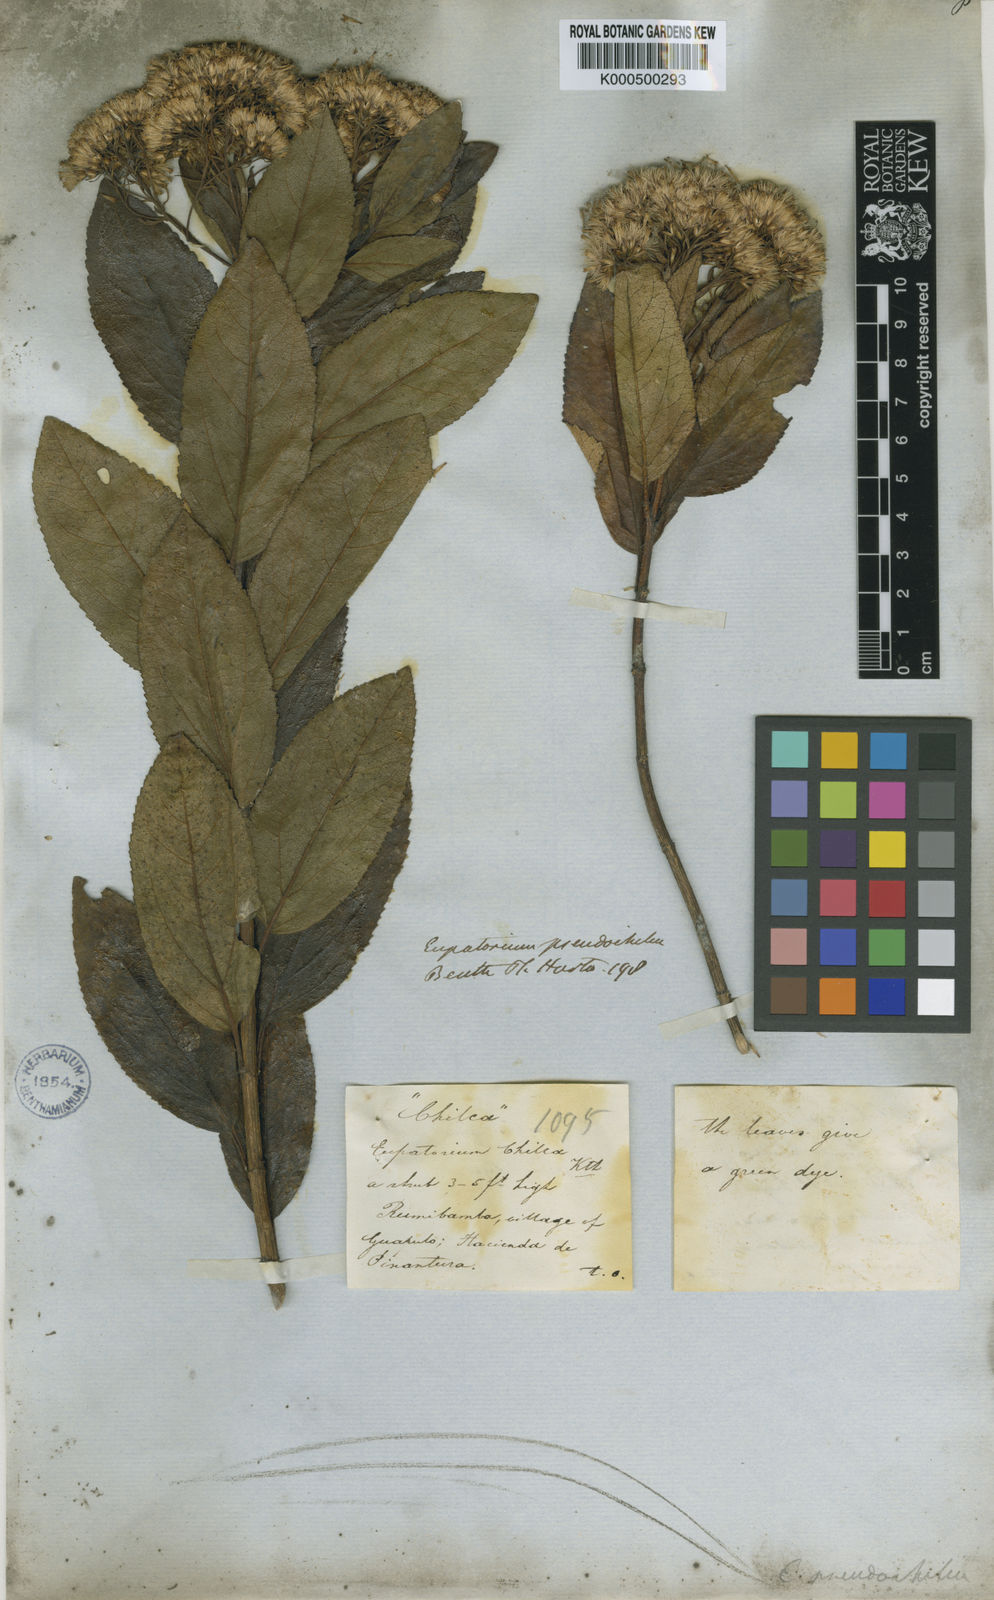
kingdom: Plantae
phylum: Tracheophyta
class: Magnoliopsida
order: Asterales
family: Asteraceae
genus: Ageratina
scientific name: Ageratina pseudochilca
